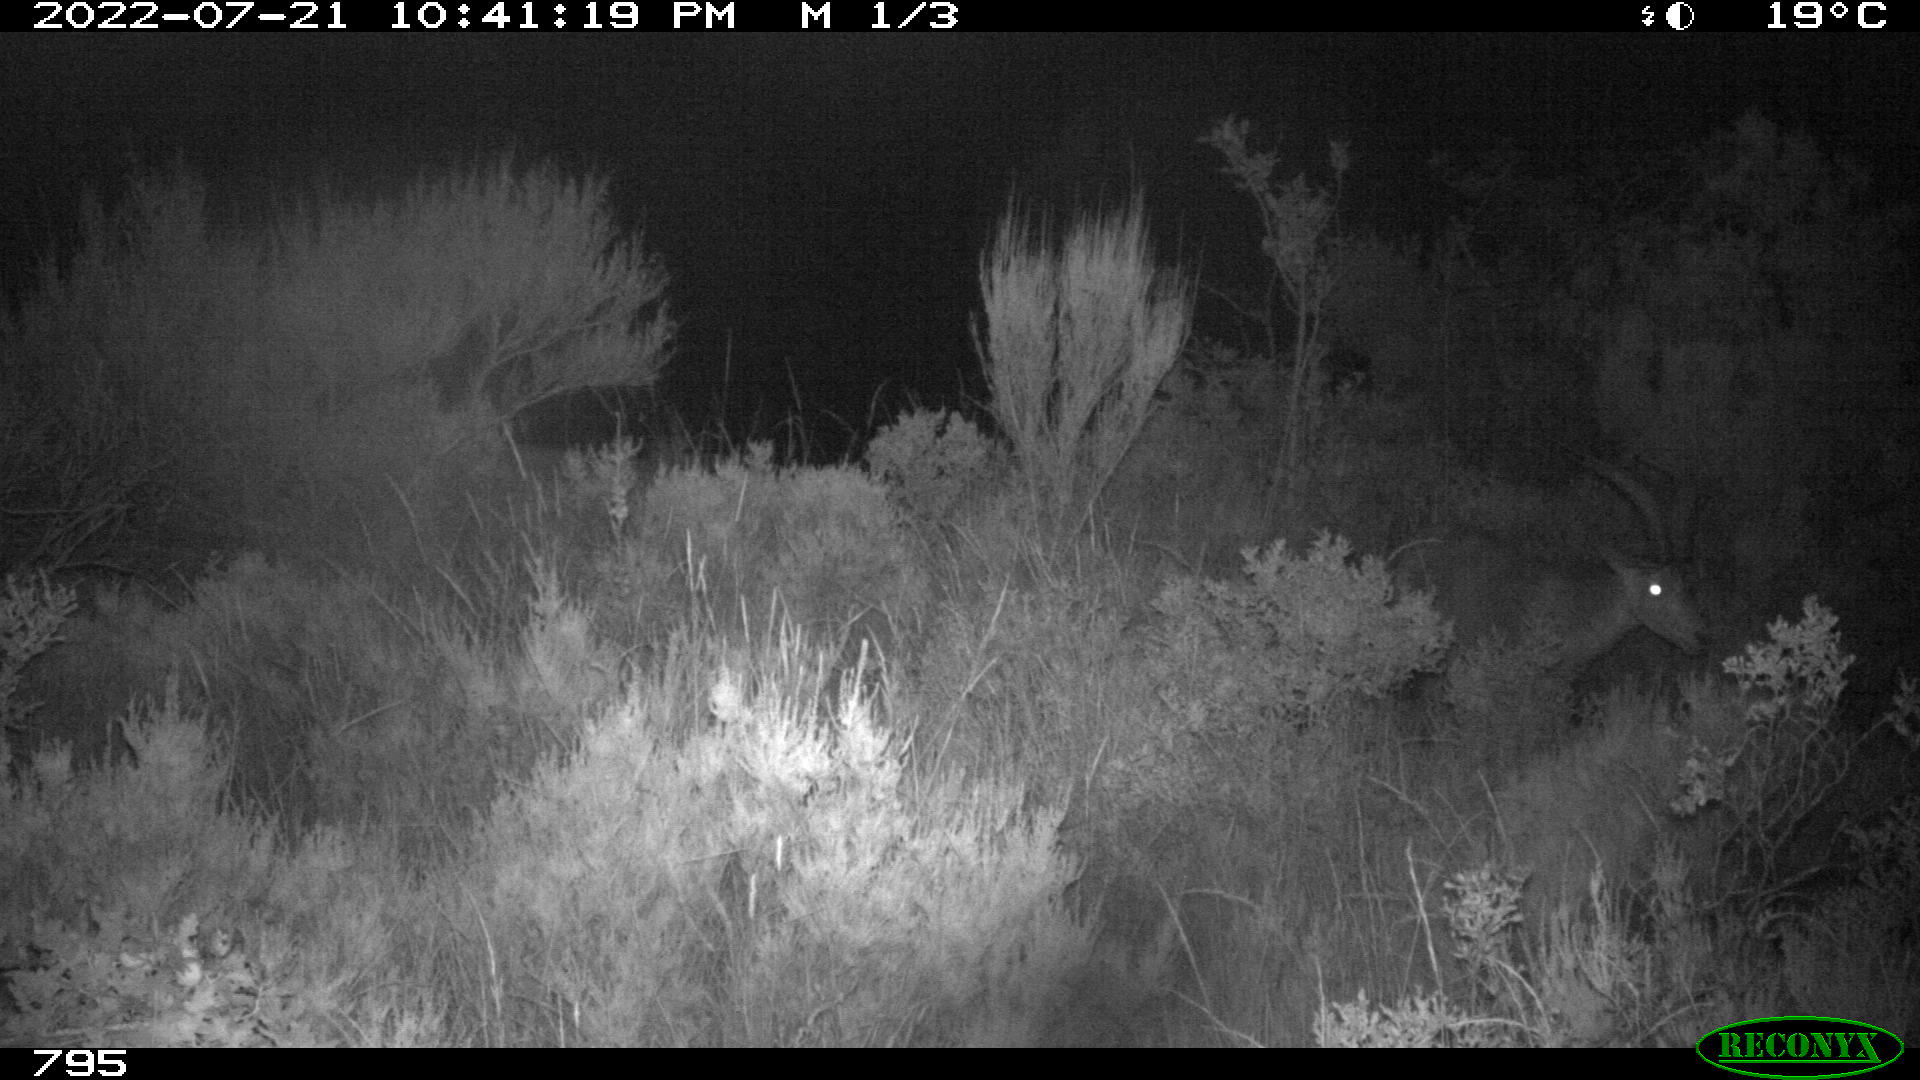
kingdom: Animalia
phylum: Chordata
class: Mammalia
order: Artiodactyla
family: Bovidae
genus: Capra
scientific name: Capra pyrenaica
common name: Spanish ibex
